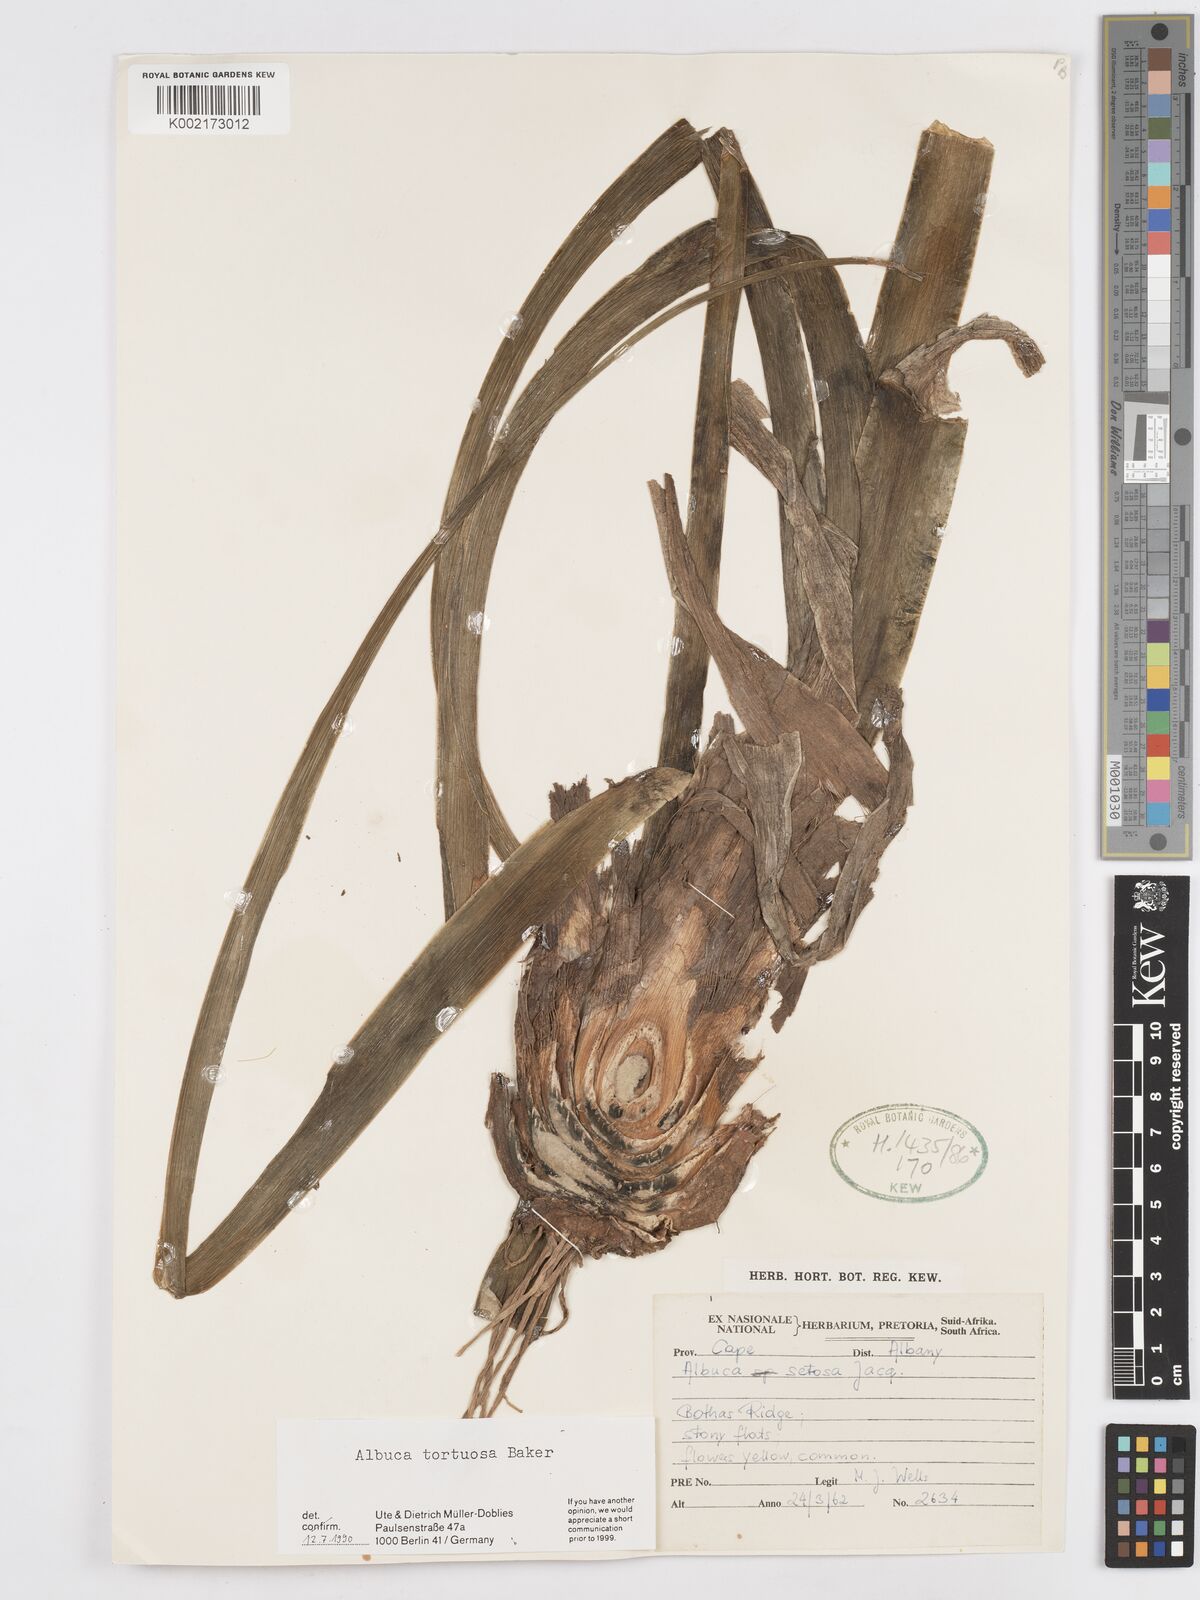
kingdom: Plantae
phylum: Tracheophyta
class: Liliopsida
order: Asparagales
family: Asparagaceae
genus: Albuca
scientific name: Albuca tortuosa
